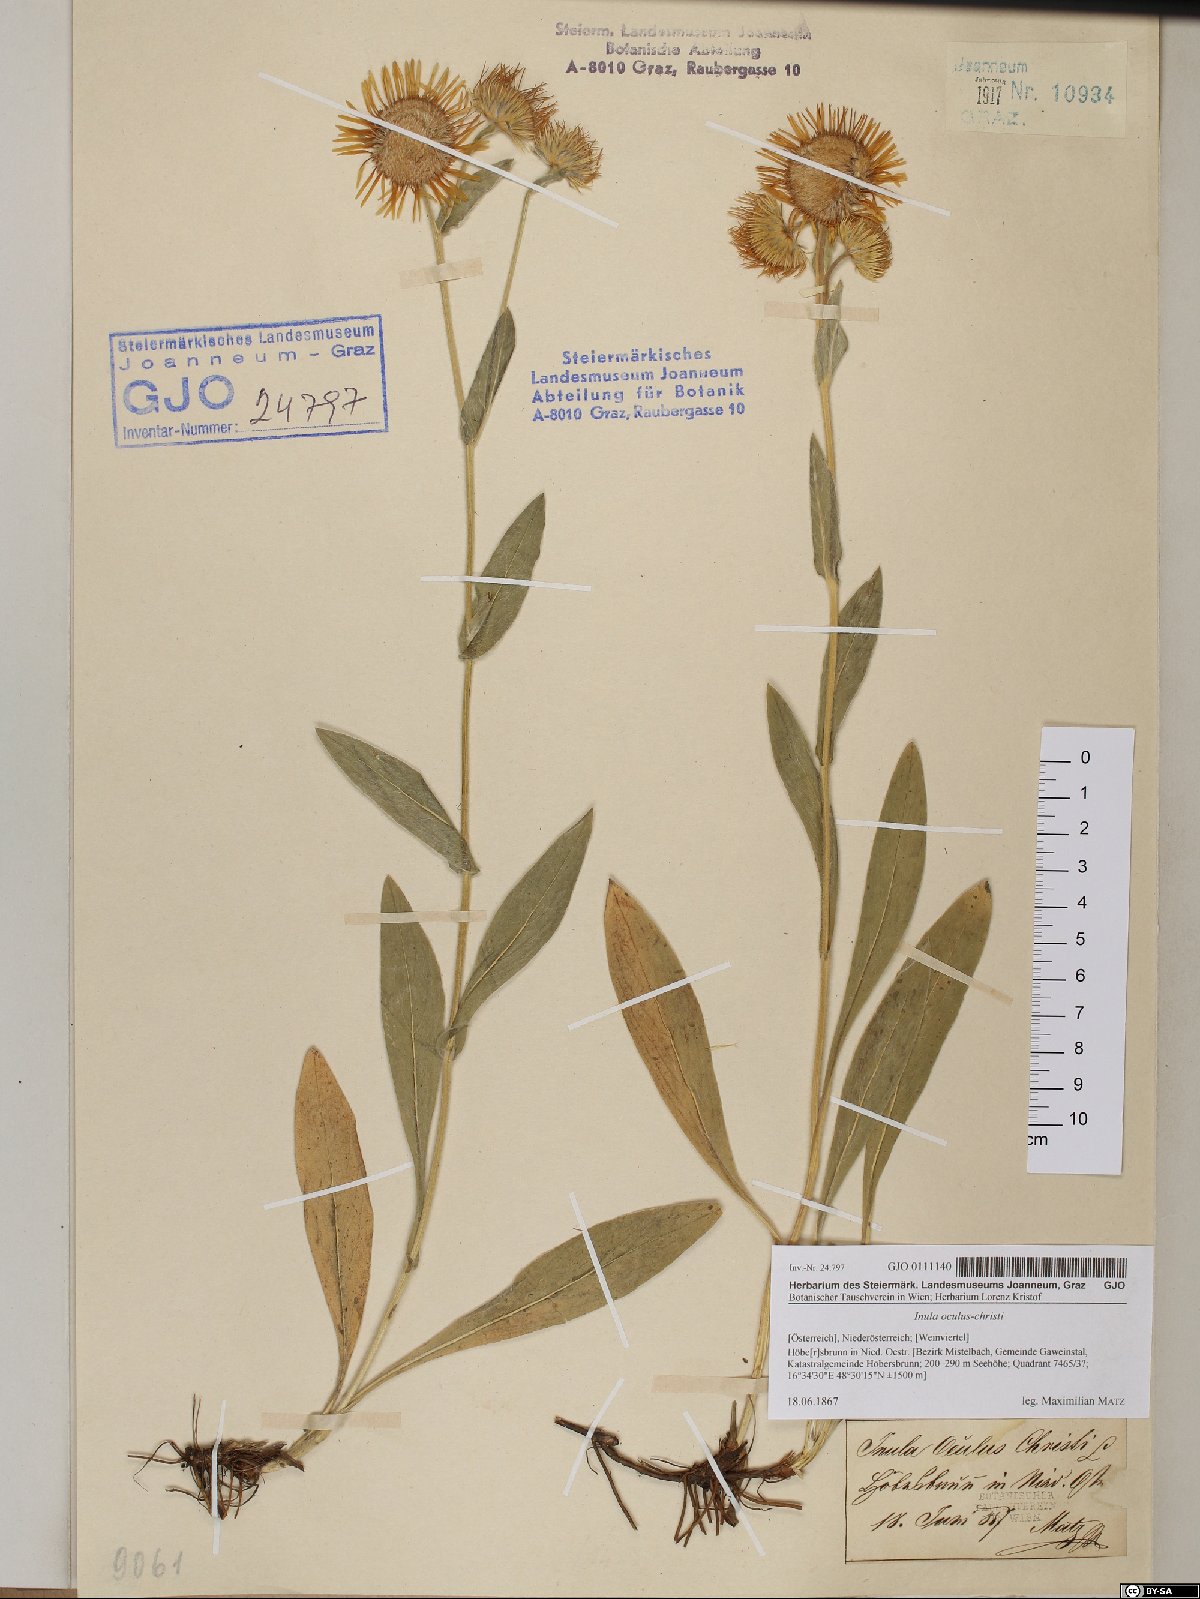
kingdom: Plantae
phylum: Tracheophyta
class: Magnoliopsida
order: Asterales
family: Asteraceae
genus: Pentanema
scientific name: Pentanema oculus-christi
